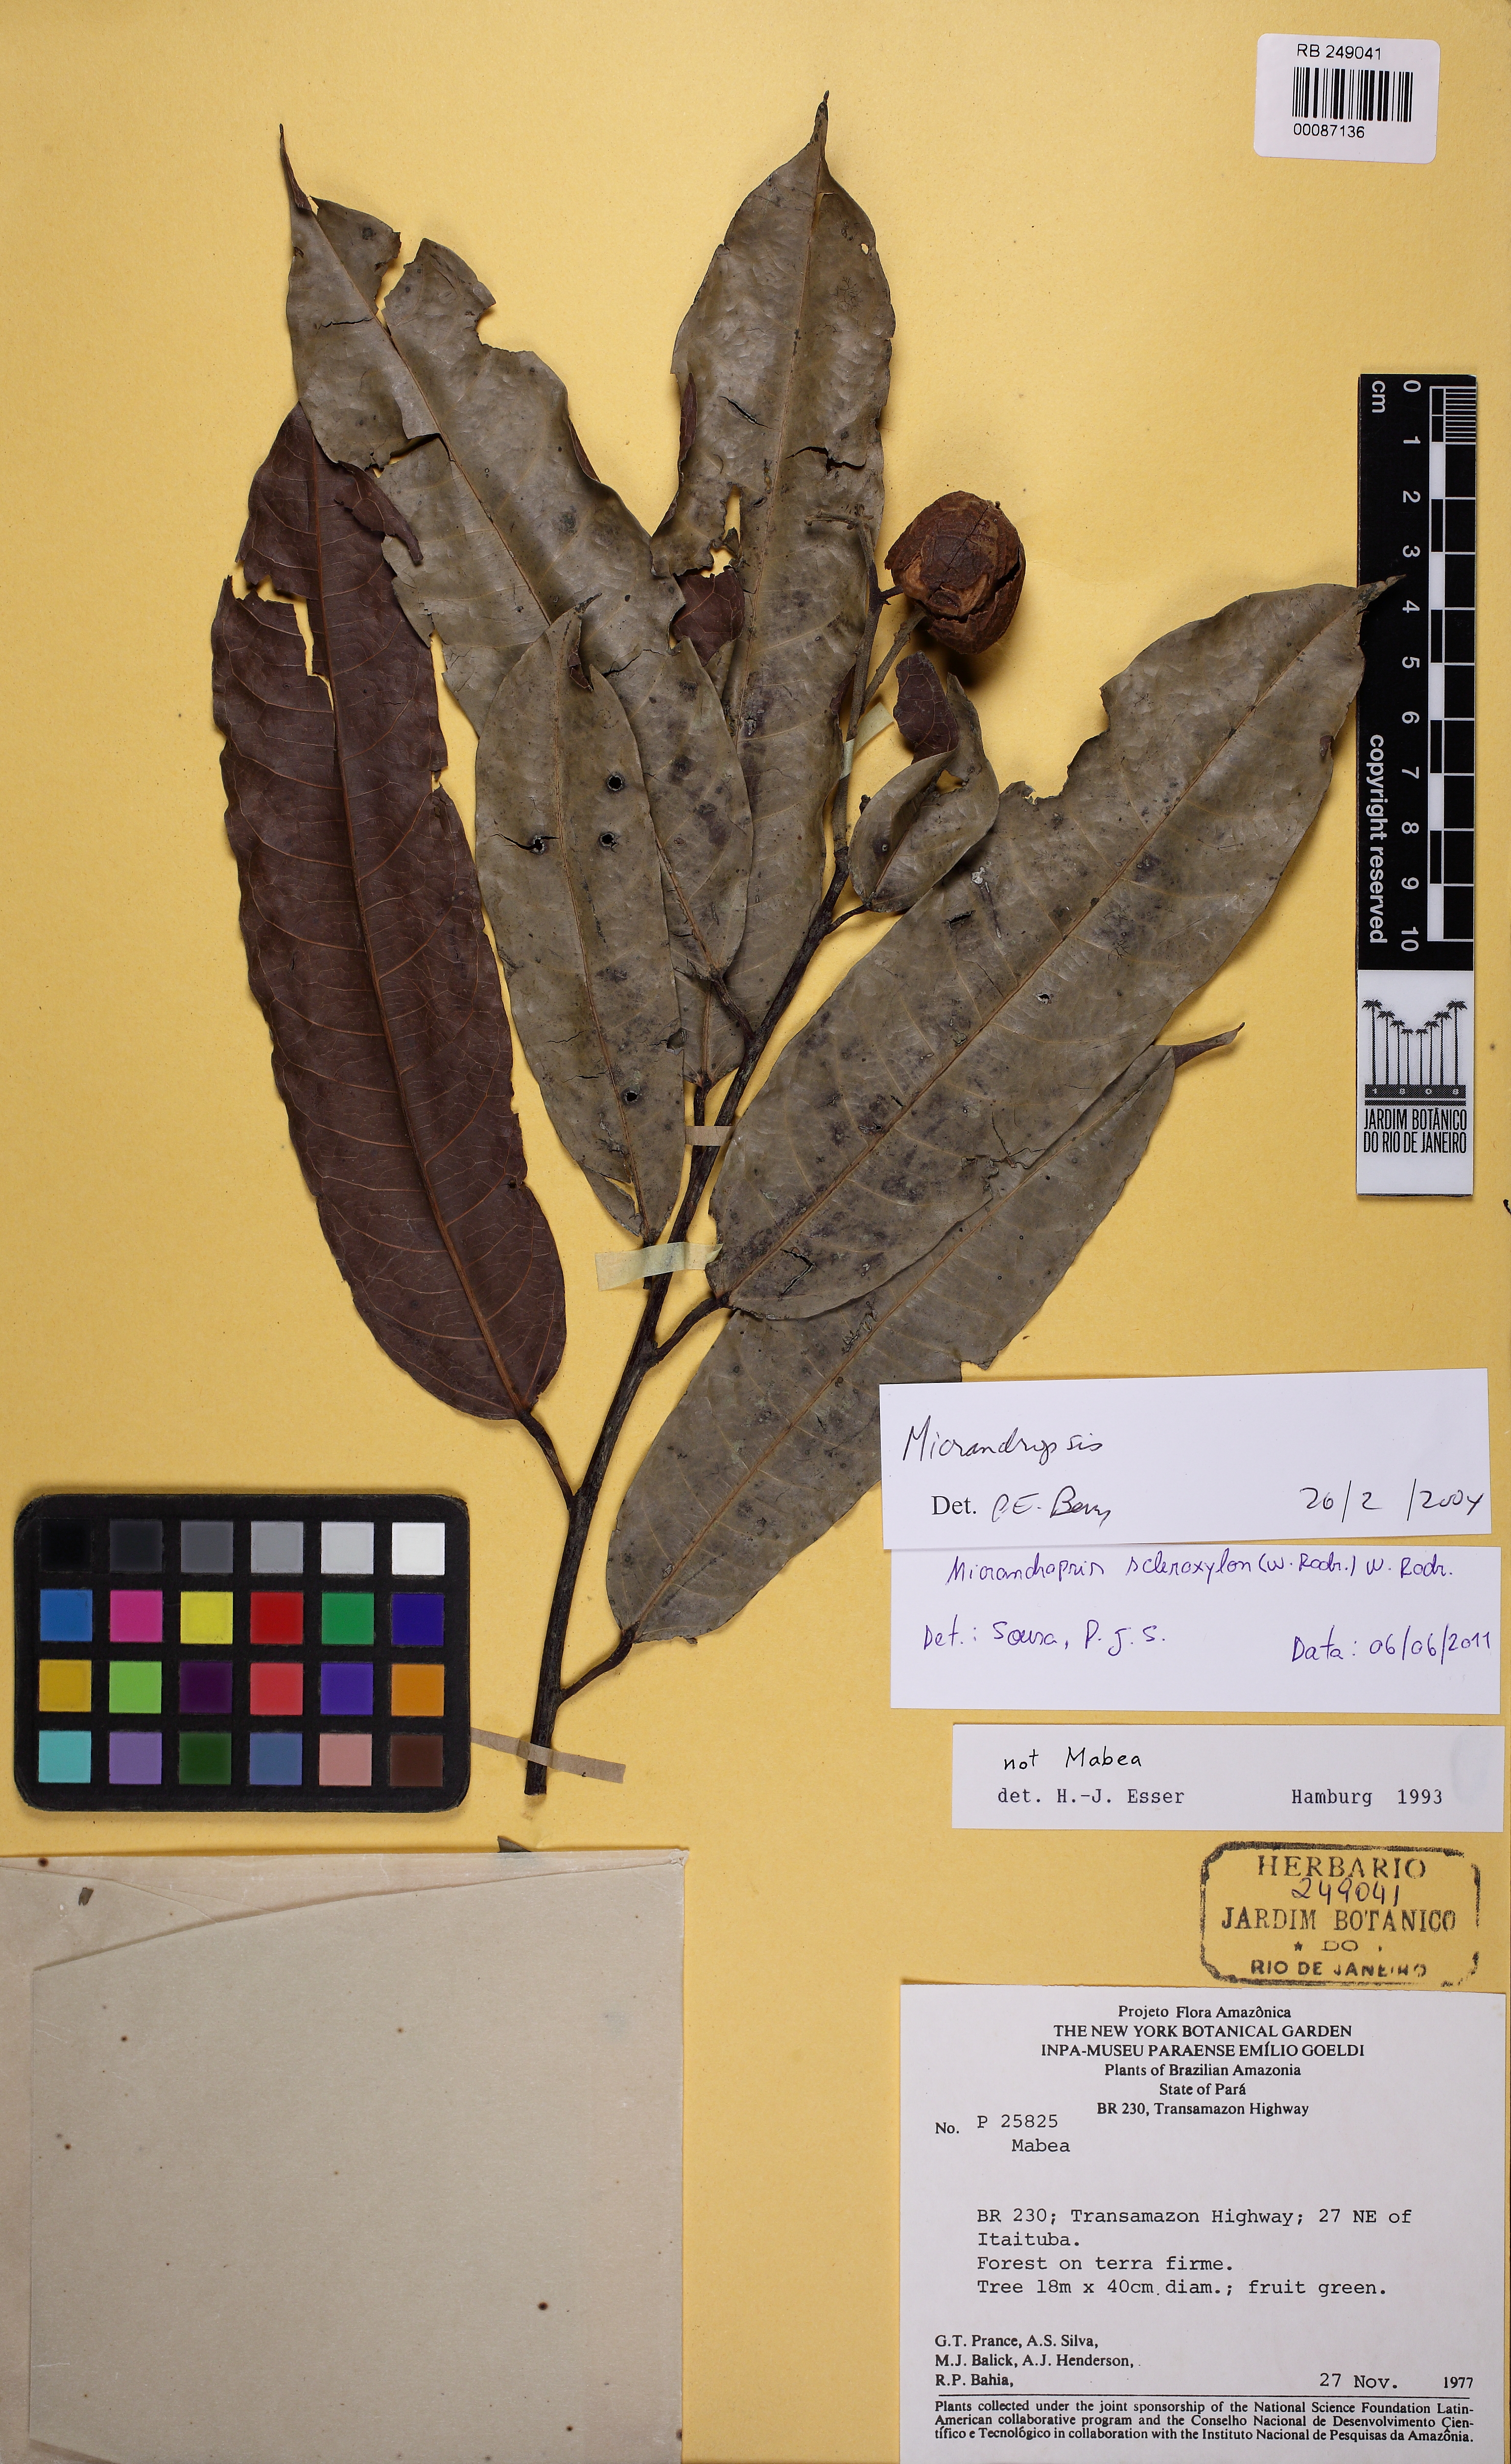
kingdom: Plantae
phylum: Tracheophyta
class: Magnoliopsida
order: Malpighiales
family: Euphorbiaceae
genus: Micrandropsis
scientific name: Micrandropsis
